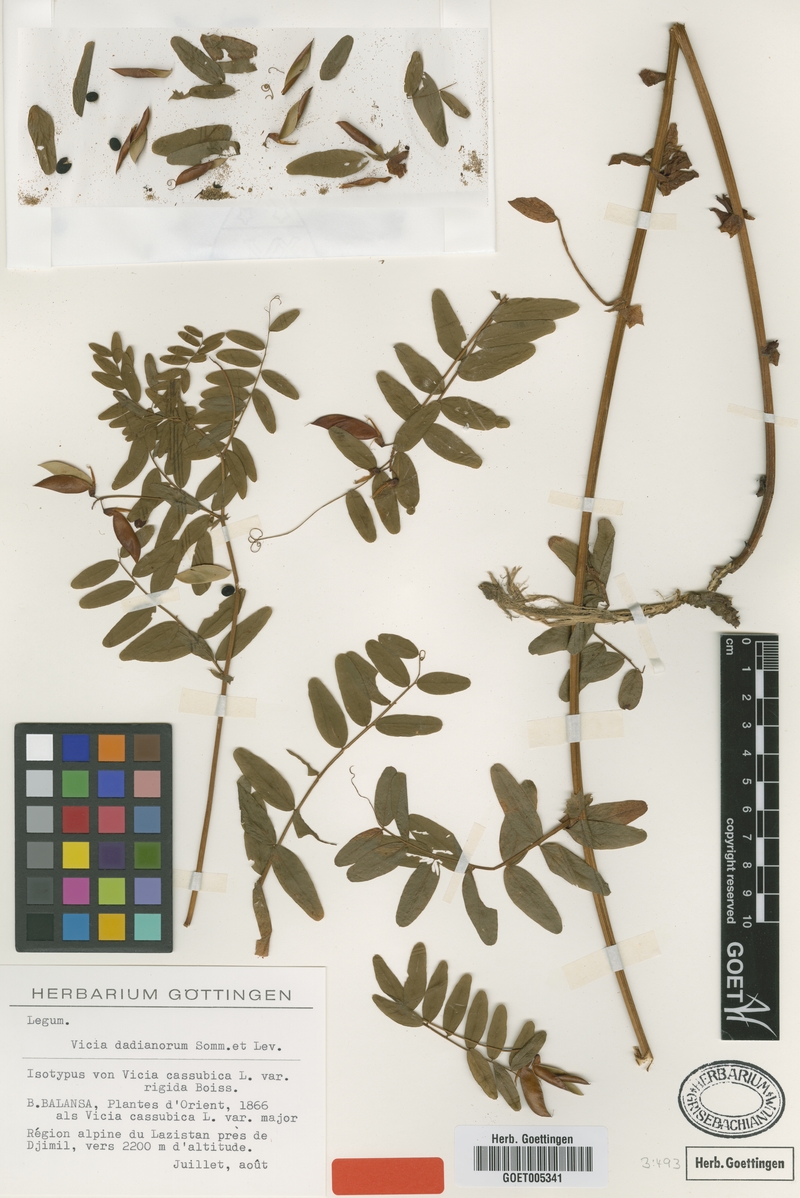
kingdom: Plantae
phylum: Tracheophyta
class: Magnoliopsida
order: Fabales
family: Fabaceae
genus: Vicia
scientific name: Vicia dadianorum
